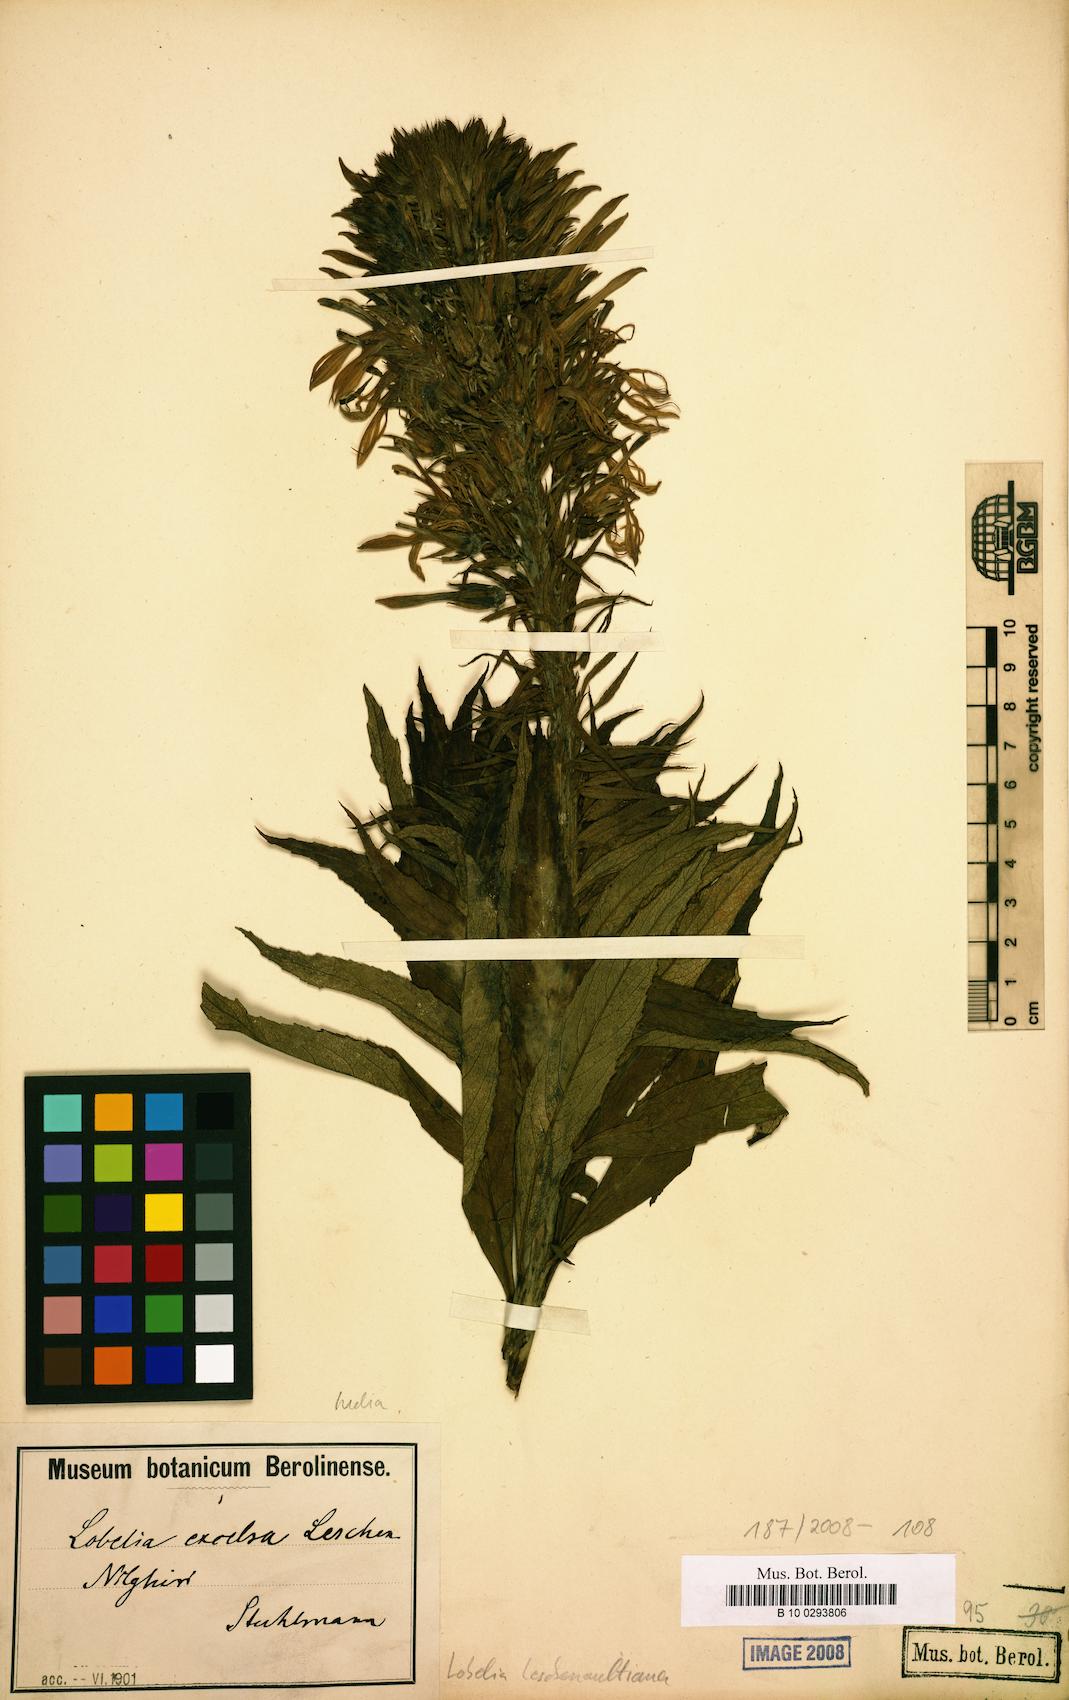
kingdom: Plantae
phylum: Tracheophyta
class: Magnoliopsida
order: Asterales
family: Campanulaceae
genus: Lobelia
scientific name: Lobelia leschenaultiana
